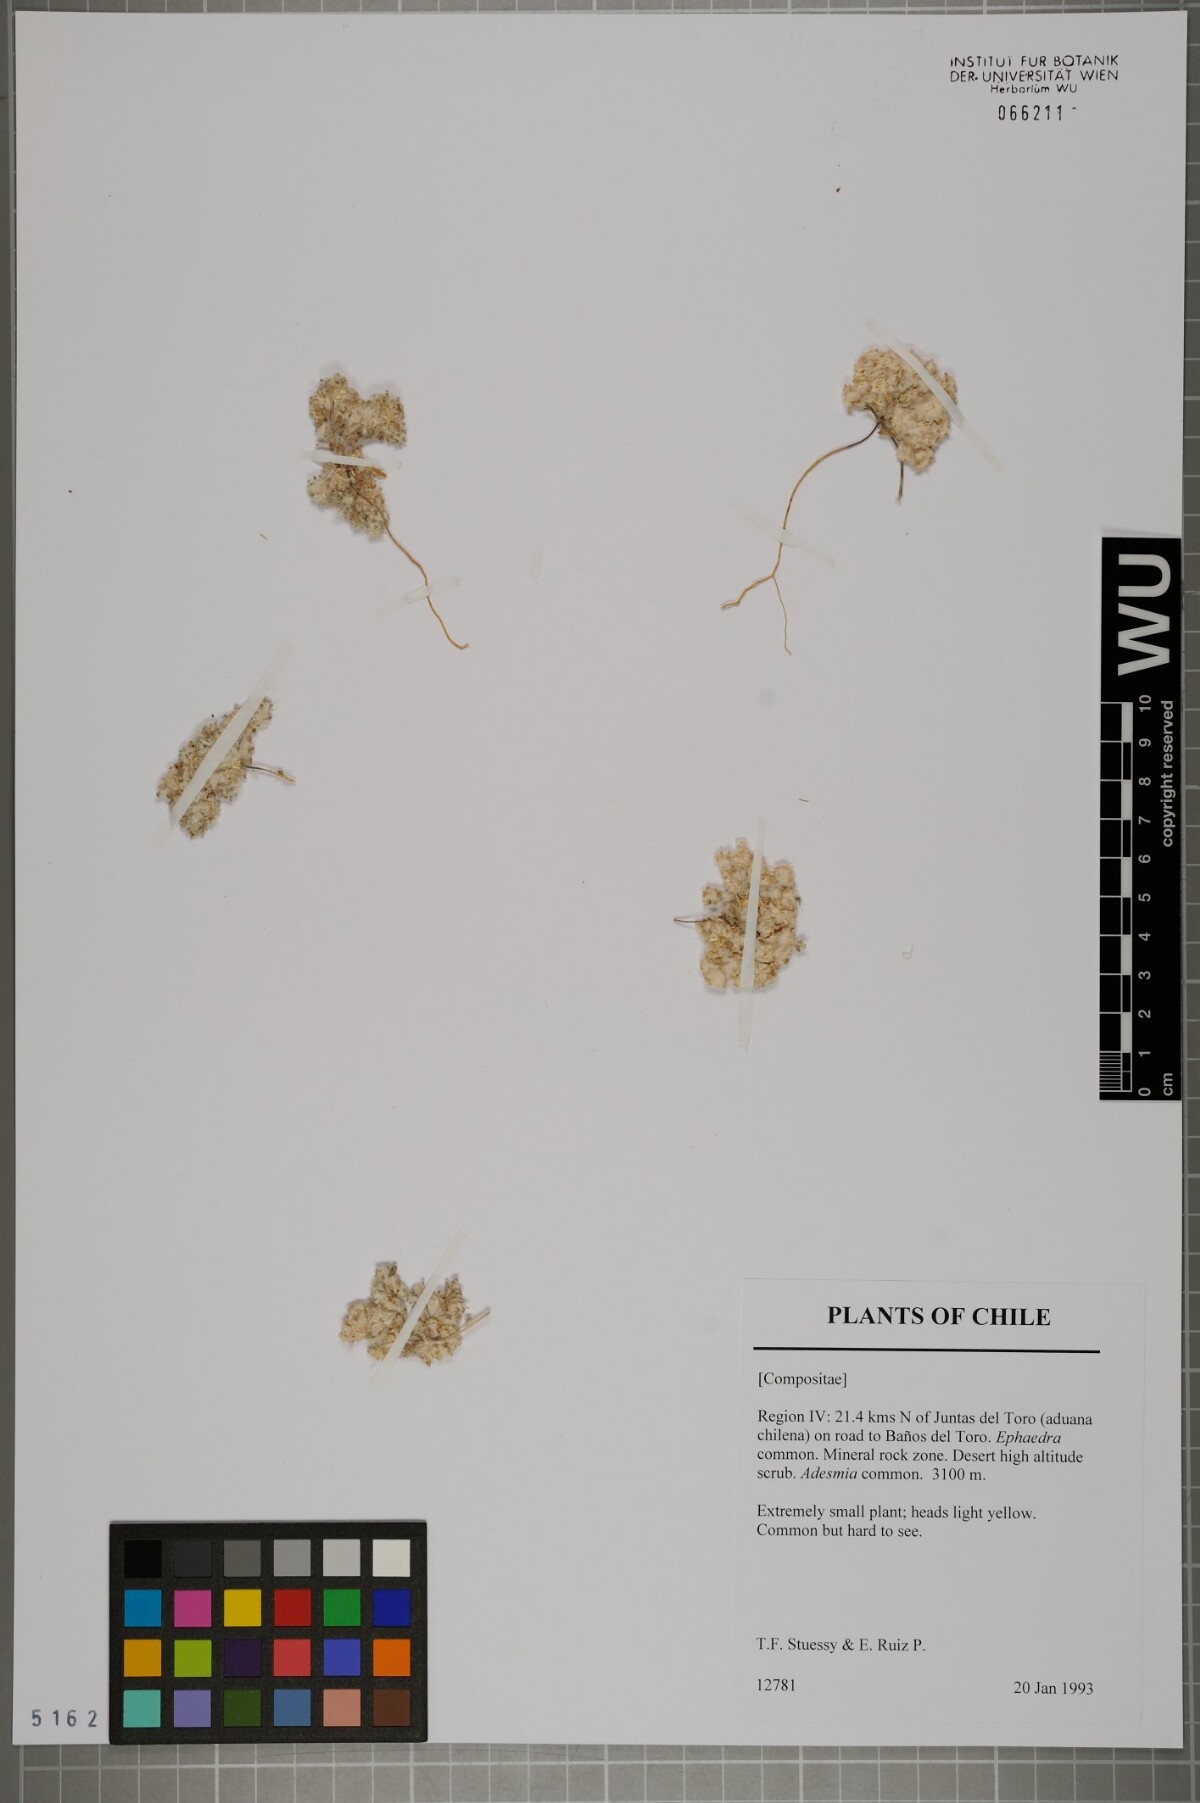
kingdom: Plantae
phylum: Tracheophyta
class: Magnoliopsida
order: Asterales
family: Asteraceae
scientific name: Asteraceae
